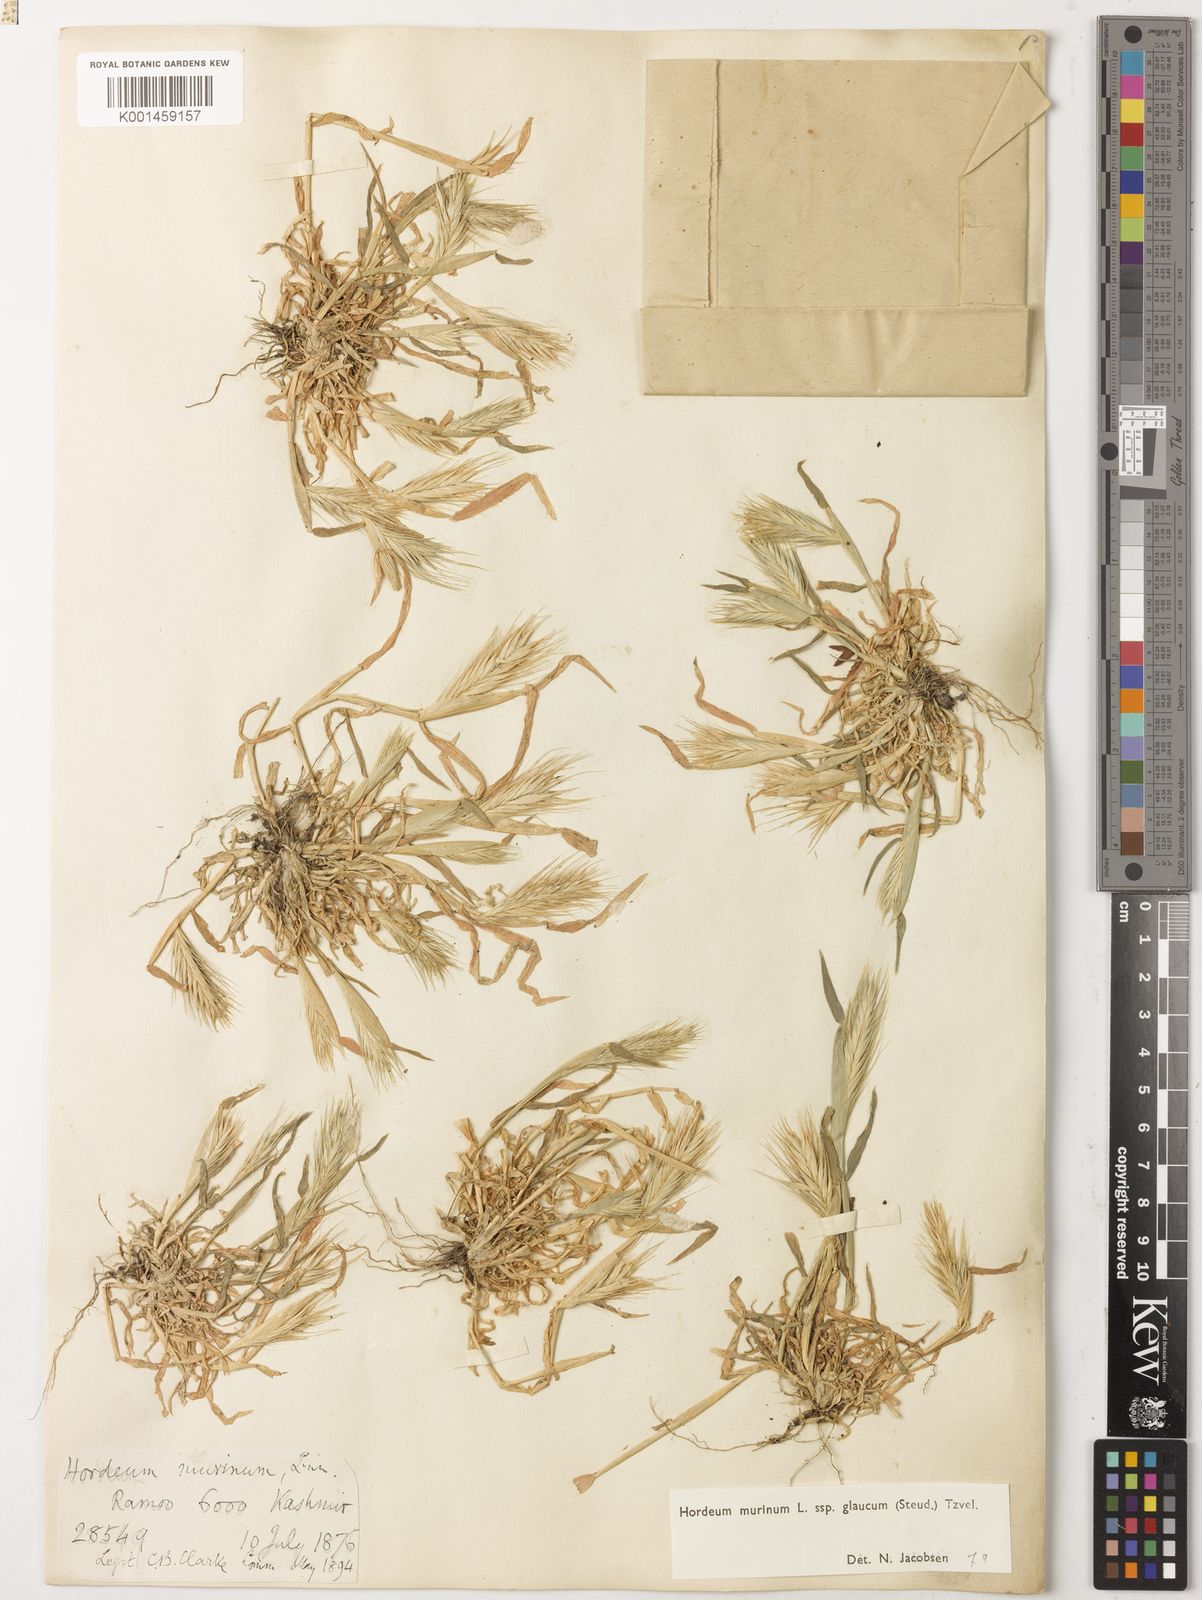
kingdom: Plantae
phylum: Tracheophyta
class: Liliopsida
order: Poales
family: Poaceae
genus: Hordeum
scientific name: Hordeum murinum
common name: Wall barley
